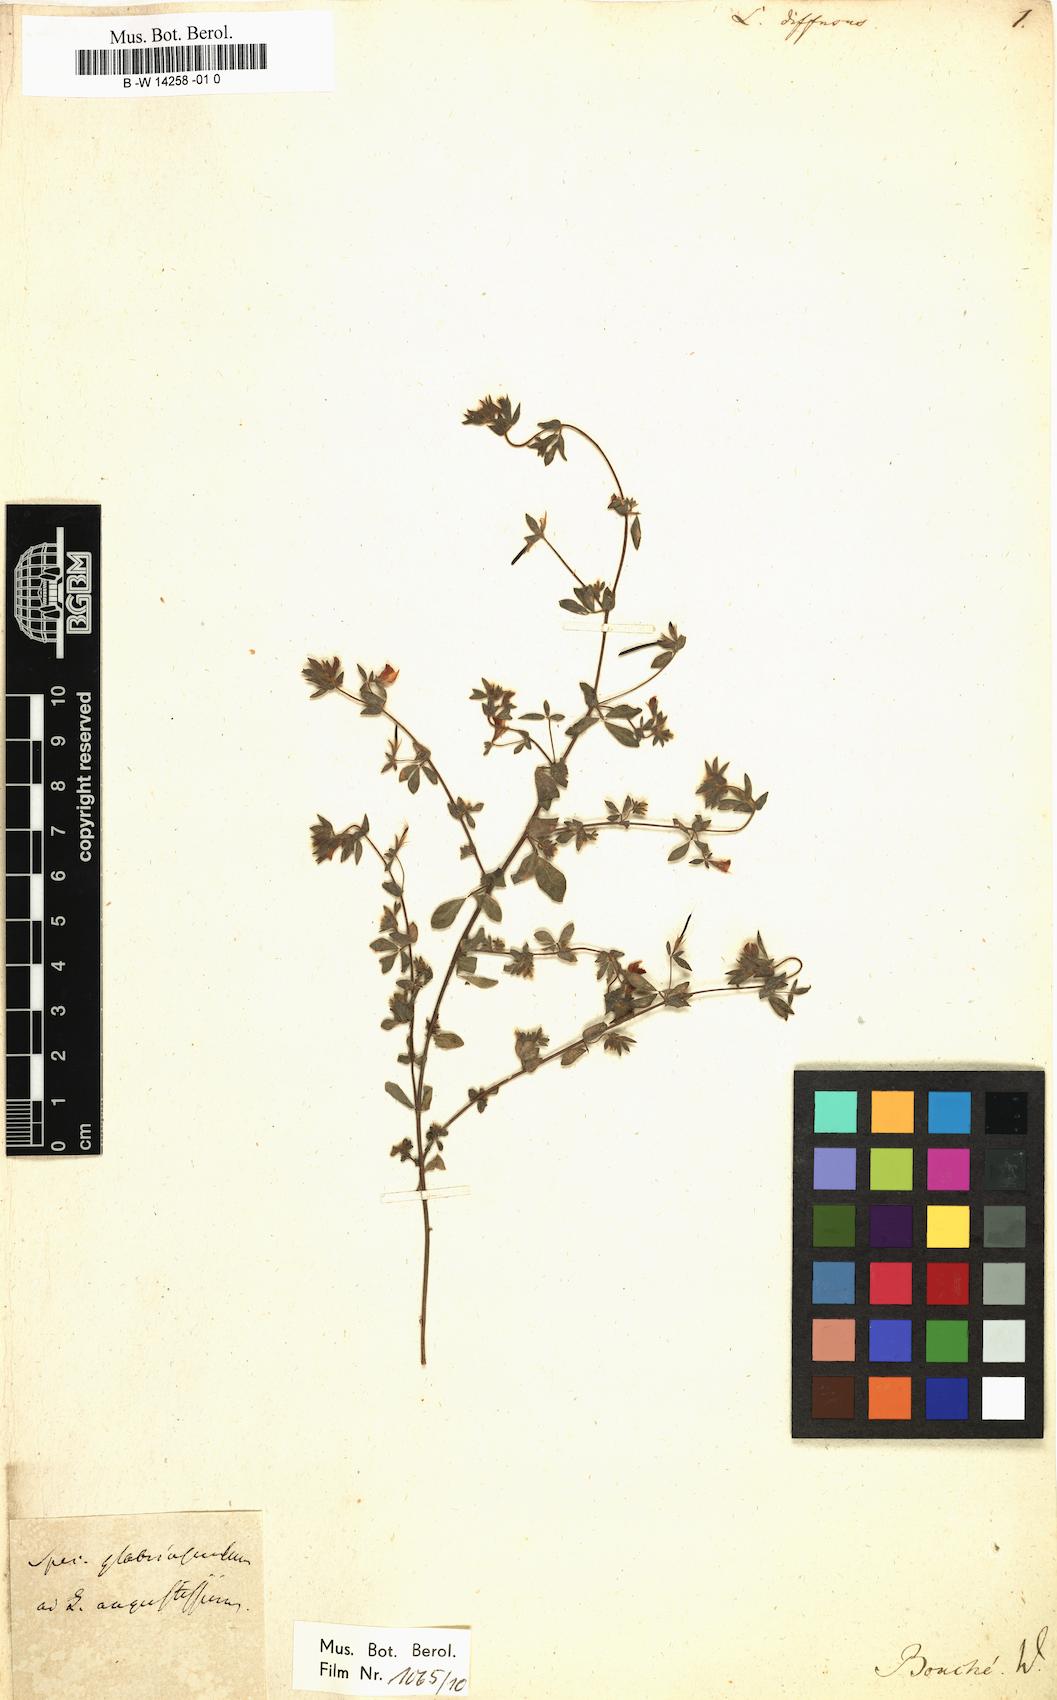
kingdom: Plantae
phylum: Tracheophyta
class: Magnoliopsida
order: Fabales
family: Fabaceae
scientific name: Fabaceae
